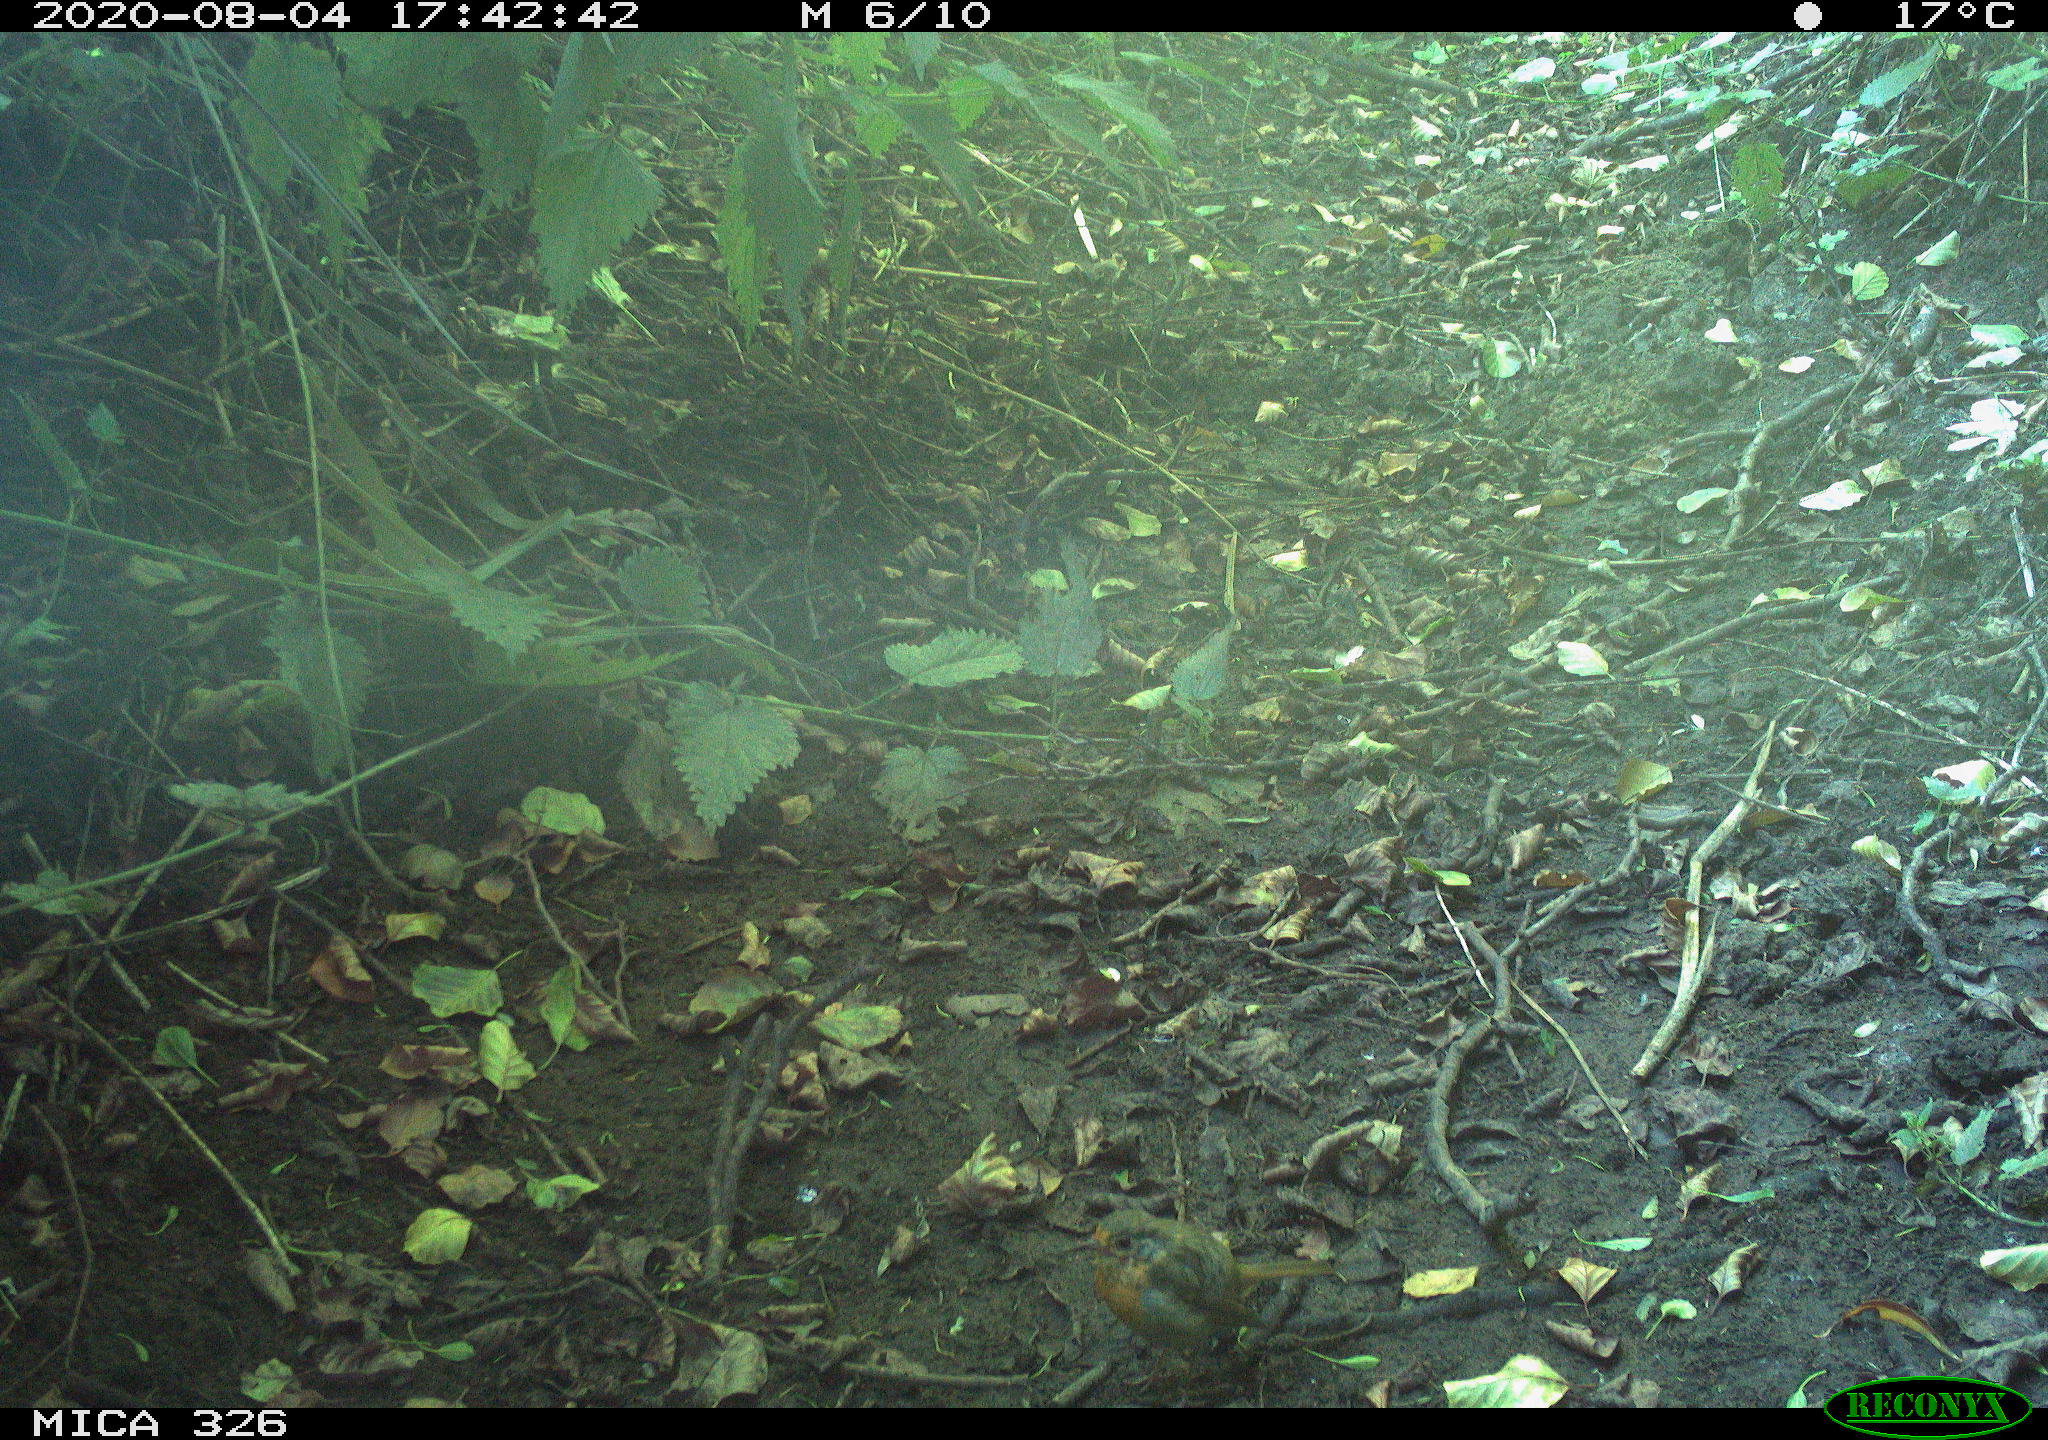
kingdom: Animalia
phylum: Chordata
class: Aves
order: Passeriformes
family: Muscicapidae
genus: Erithacus
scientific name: Erithacus rubecula
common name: European robin
